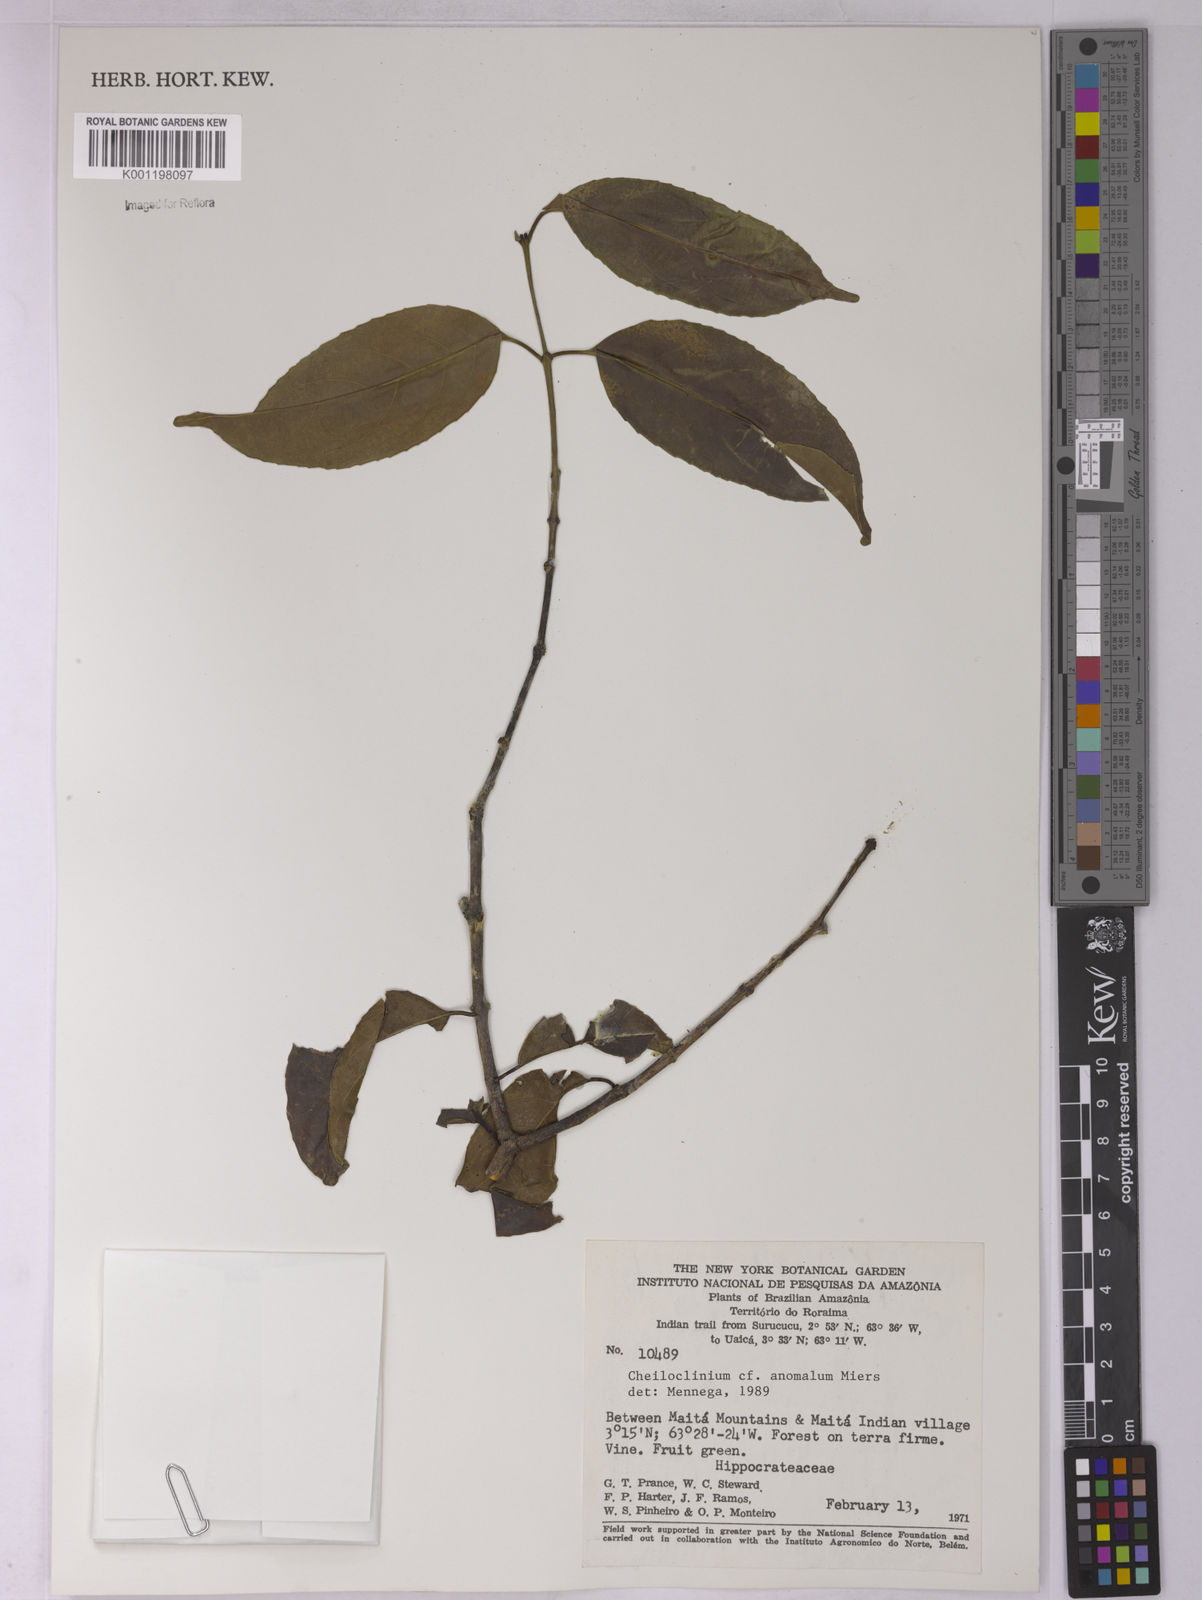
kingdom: Plantae
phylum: Tracheophyta
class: Magnoliopsida
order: Celastrales
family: Celastraceae
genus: Cheiloclinium
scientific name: Cheiloclinium anomalum
